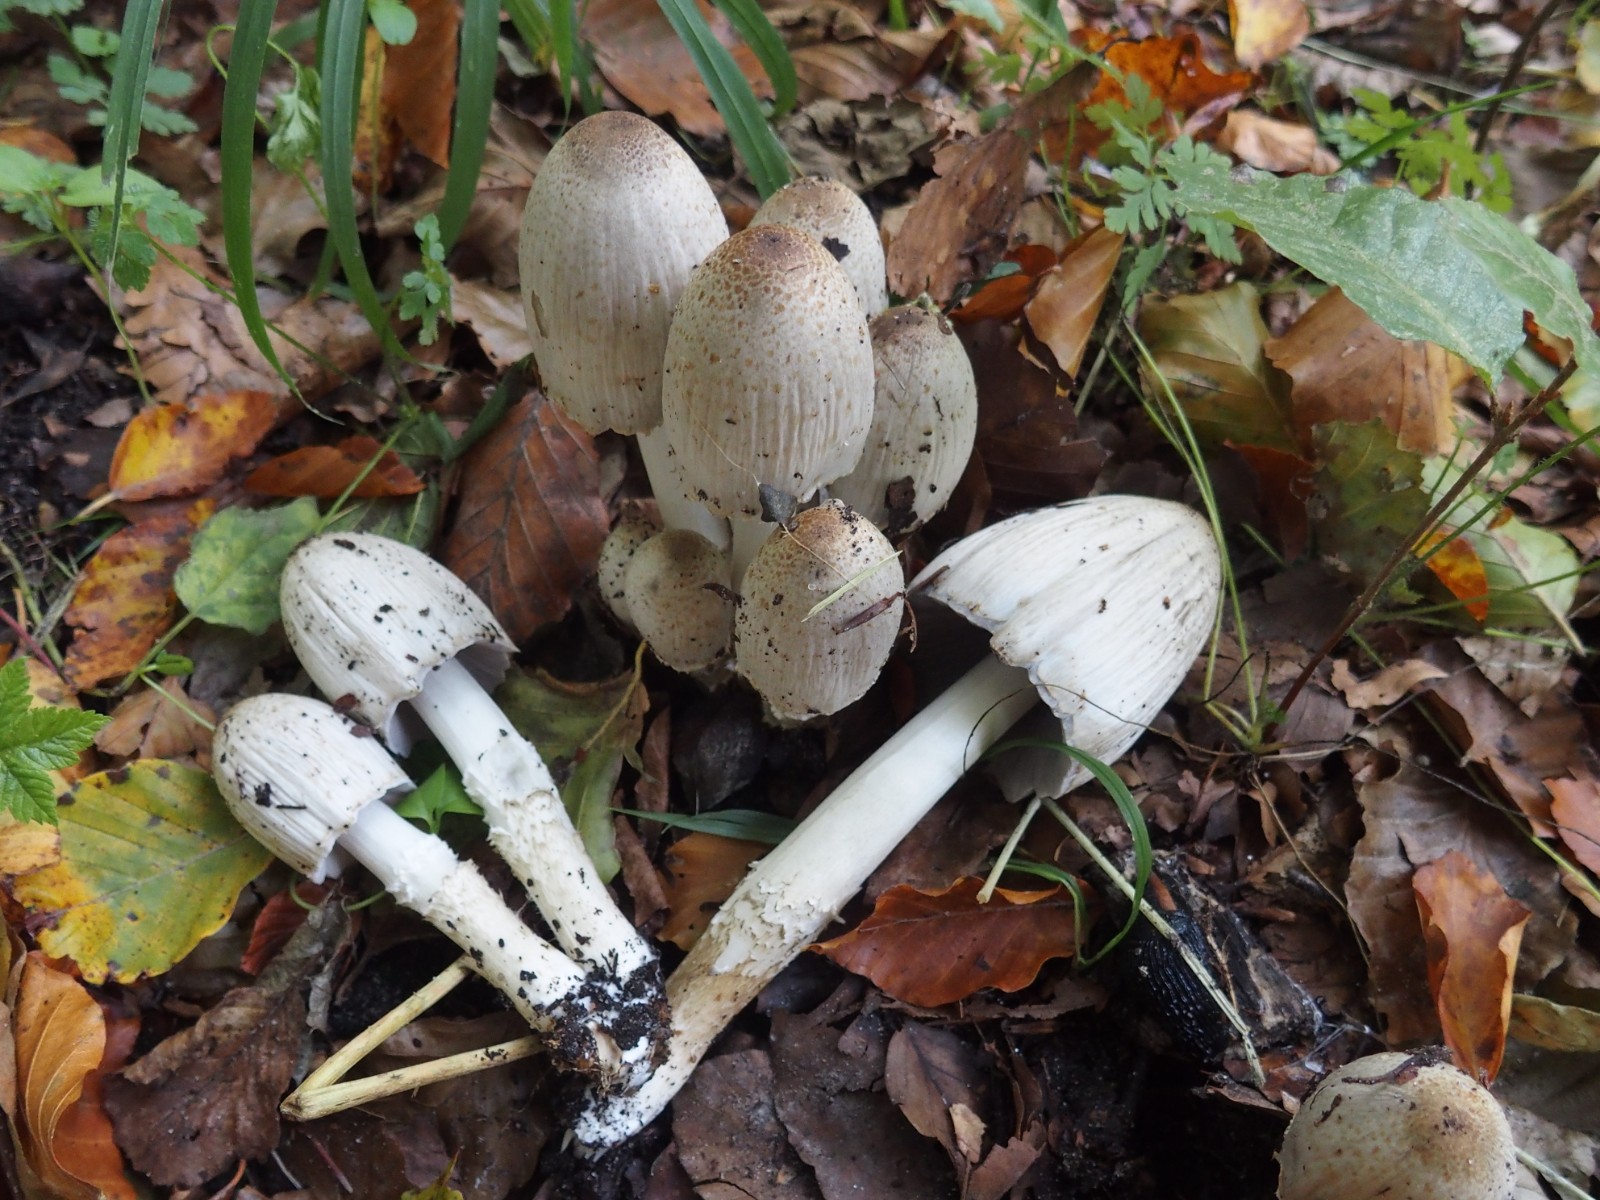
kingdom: Fungi
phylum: Basidiomycota
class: Agaricomycetes
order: Agaricales
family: Psathyrellaceae
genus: Coprinopsis
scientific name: Coprinopsis romagnesiana
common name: brunskællet blækhat
